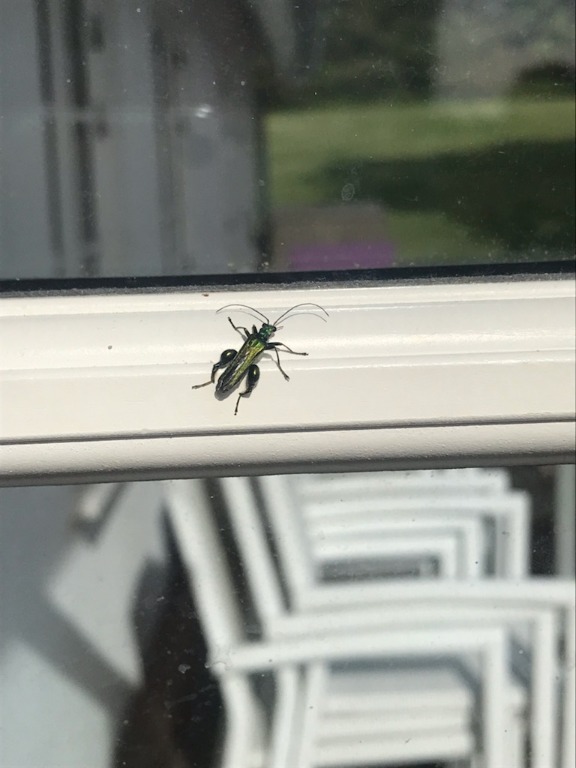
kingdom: Animalia
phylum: Arthropoda
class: Insecta
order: Coleoptera
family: Oedemeridae
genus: Oedemera
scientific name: Oedemera nobilis
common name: Tyklårssolbille
